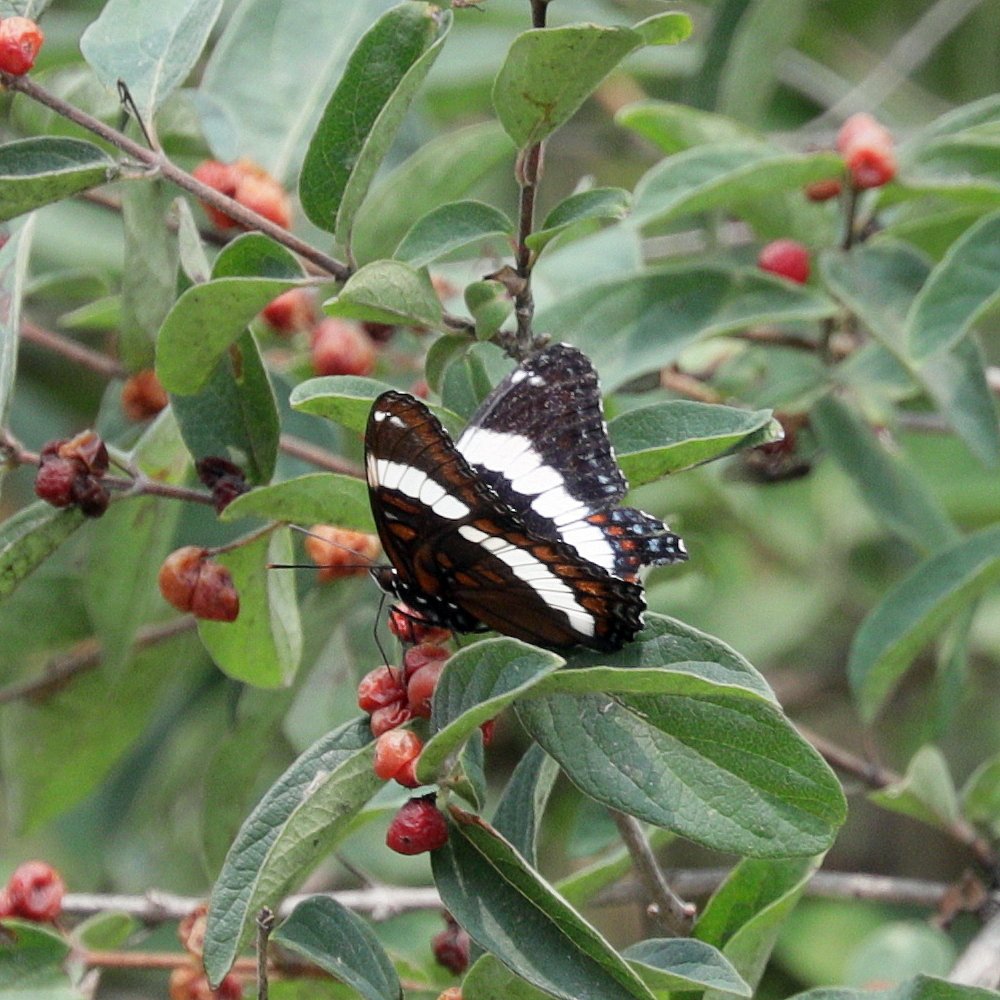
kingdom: Animalia
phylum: Arthropoda
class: Insecta
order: Lepidoptera
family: Nymphalidae
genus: Limenitis
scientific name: Limenitis arthemis
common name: Red-spotted Admiral
